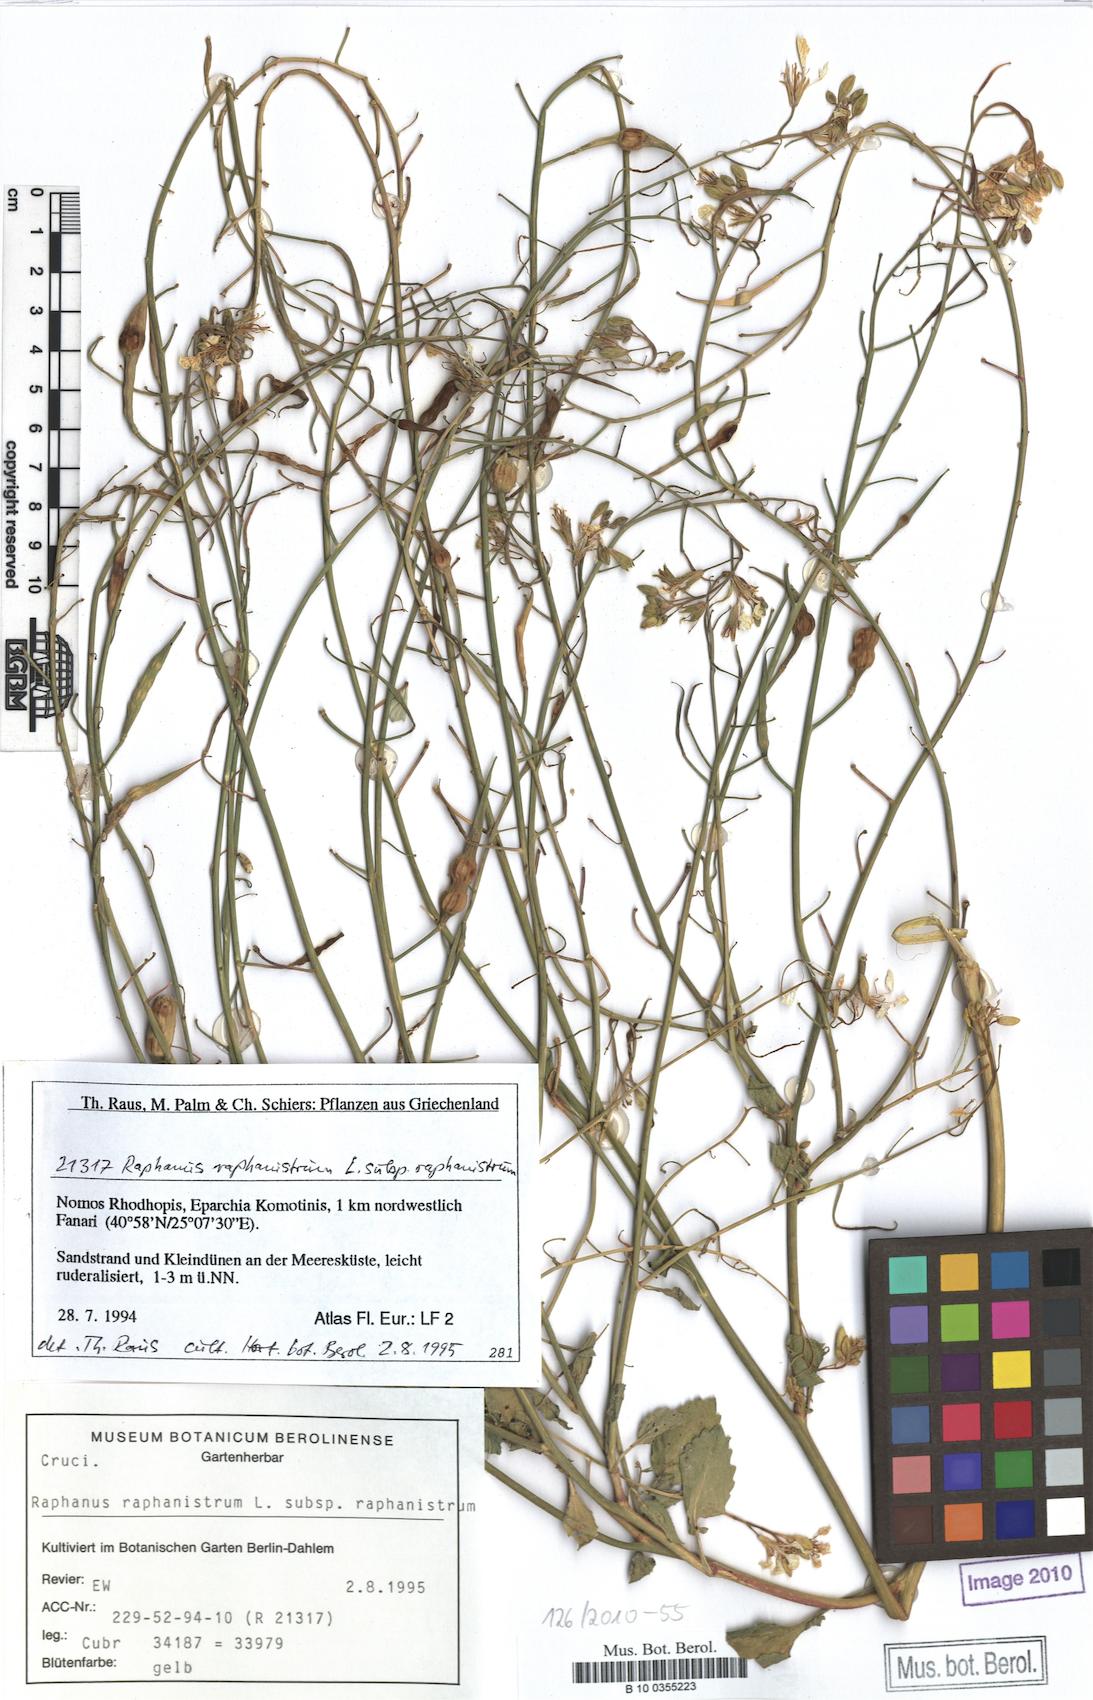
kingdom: Plantae
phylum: Tracheophyta
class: Magnoliopsida
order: Brassicales
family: Brassicaceae
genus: Raphanus
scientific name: Raphanus raphanistrum
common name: Wild radish
